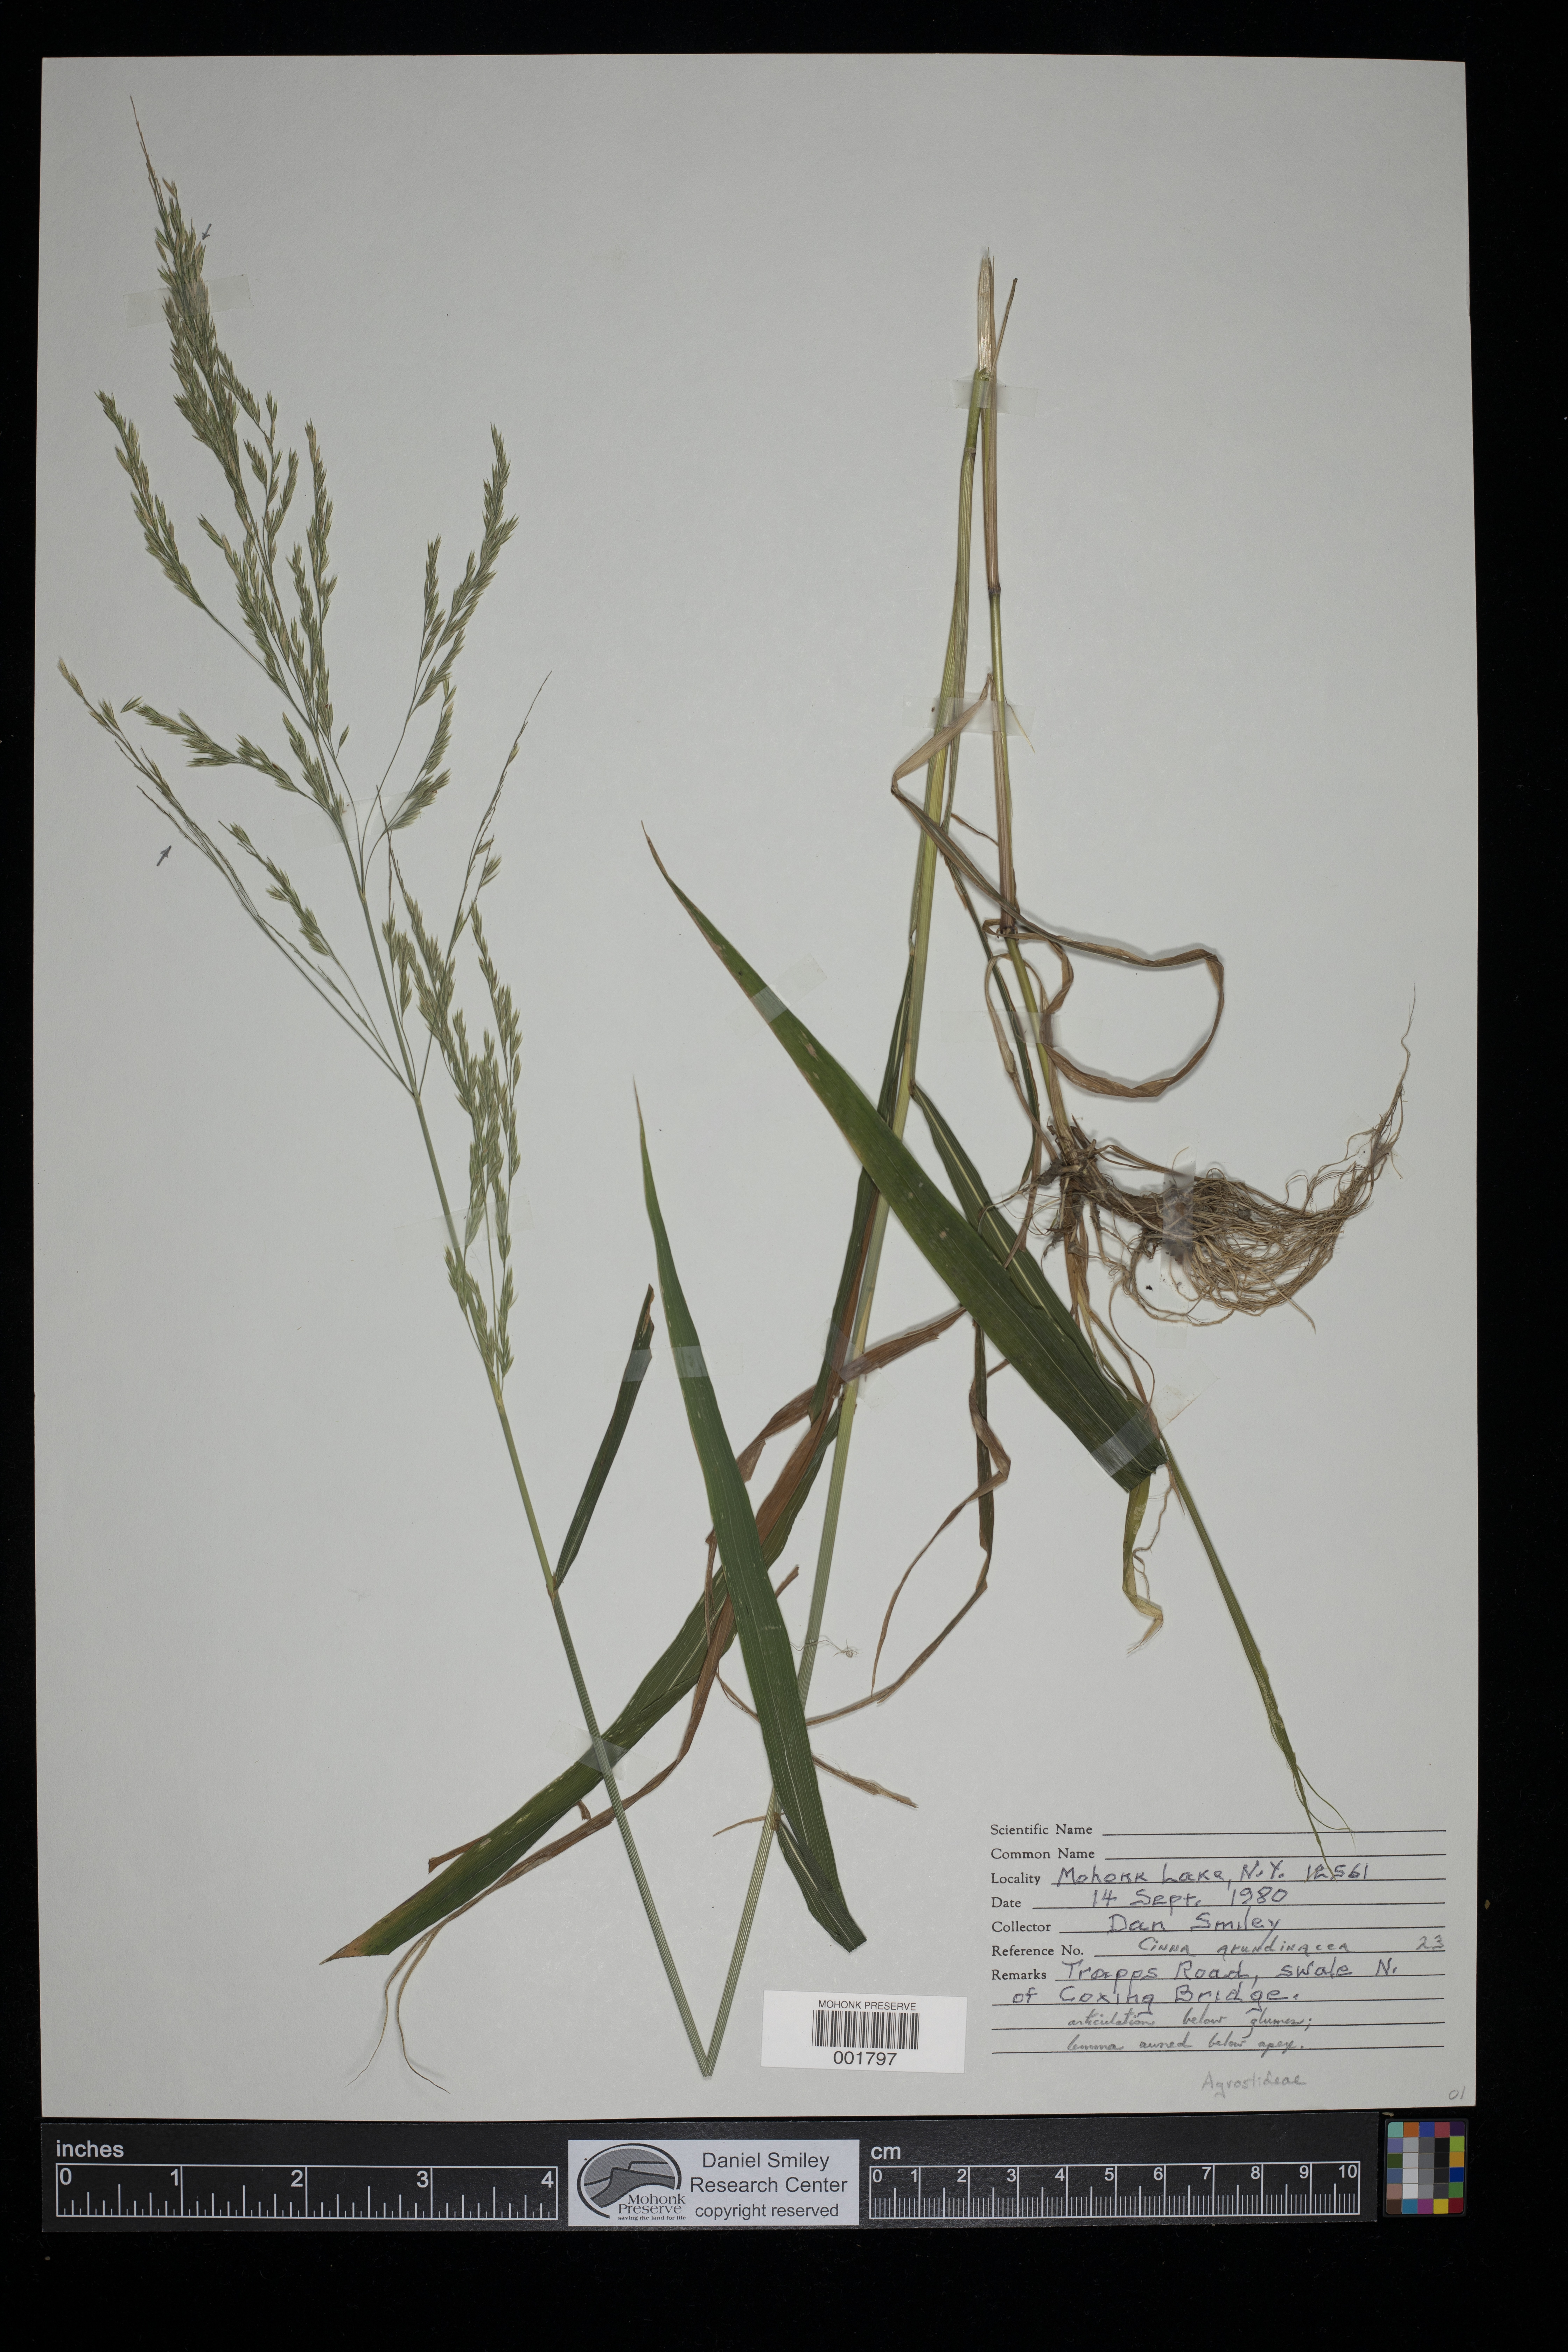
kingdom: Plantae
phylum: Tracheophyta
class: Liliopsida
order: Poales
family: Poaceae
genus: Cinna
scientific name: Cinna arundinacea
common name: Stout woodreed
